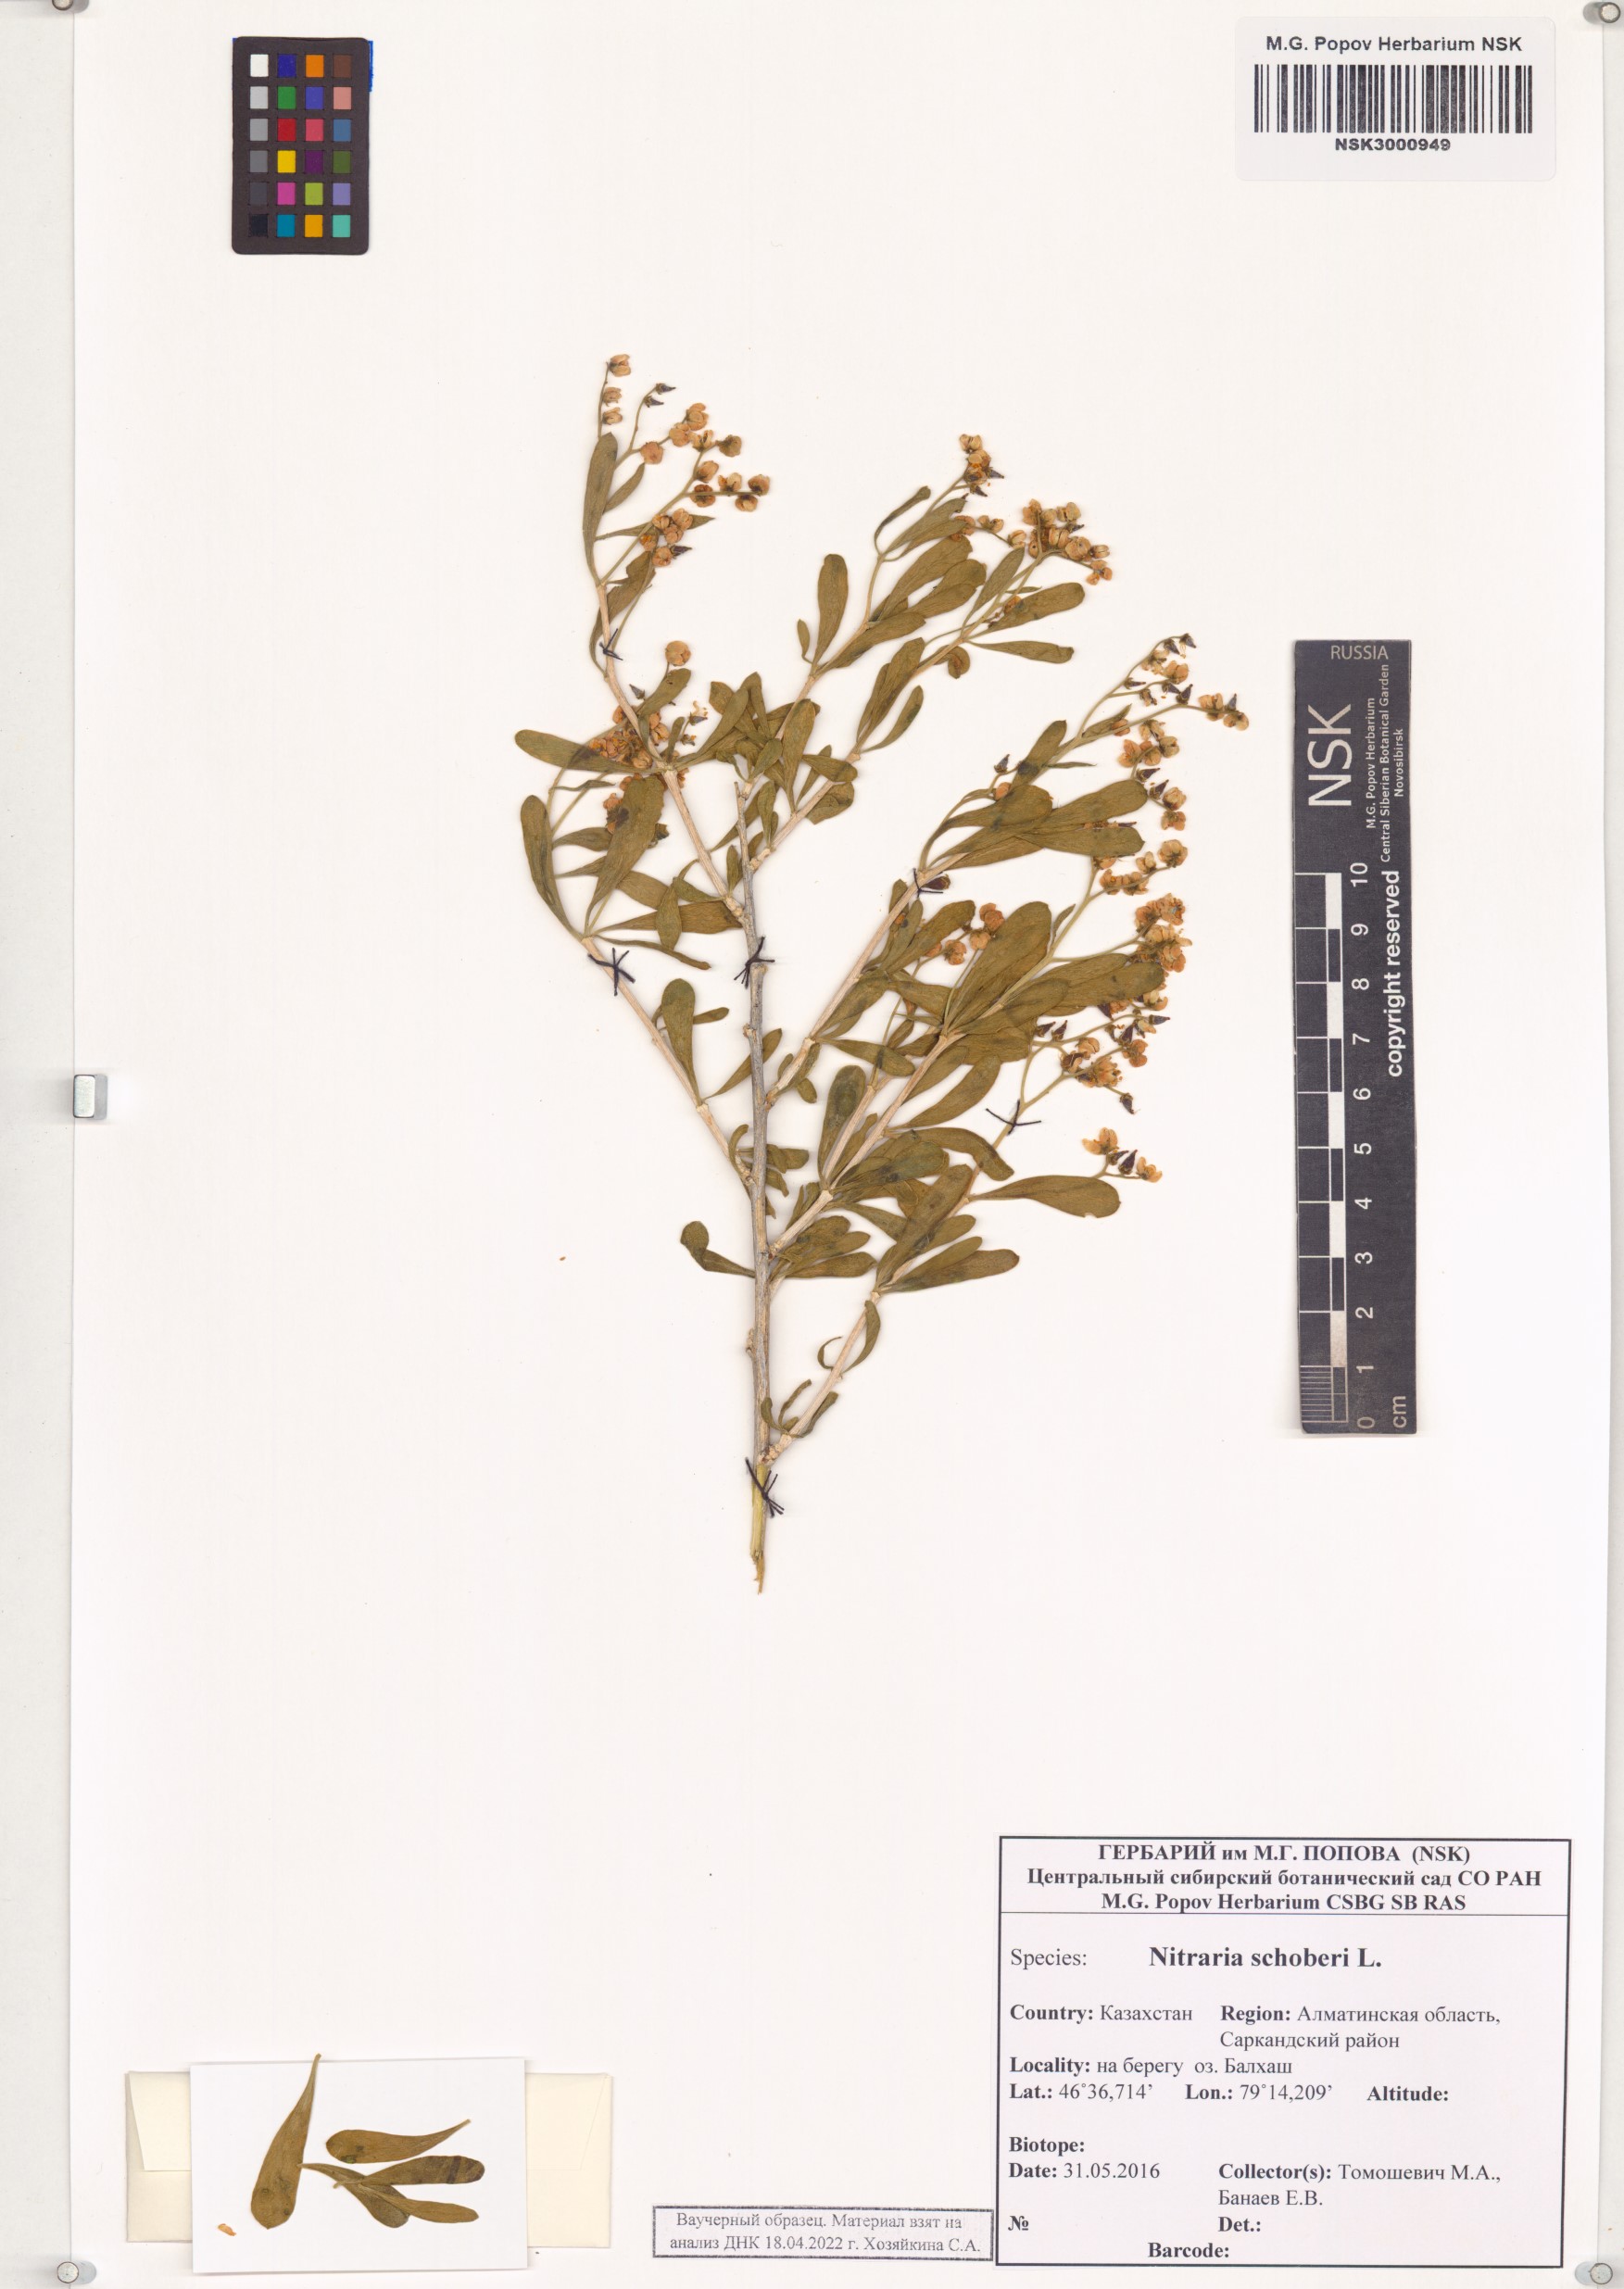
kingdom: Plantae
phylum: Tracheophyta
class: Magnoliopsida
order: Sapindales
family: Nitrariaceae
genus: Nitraria
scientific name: Nitraria schoberi
